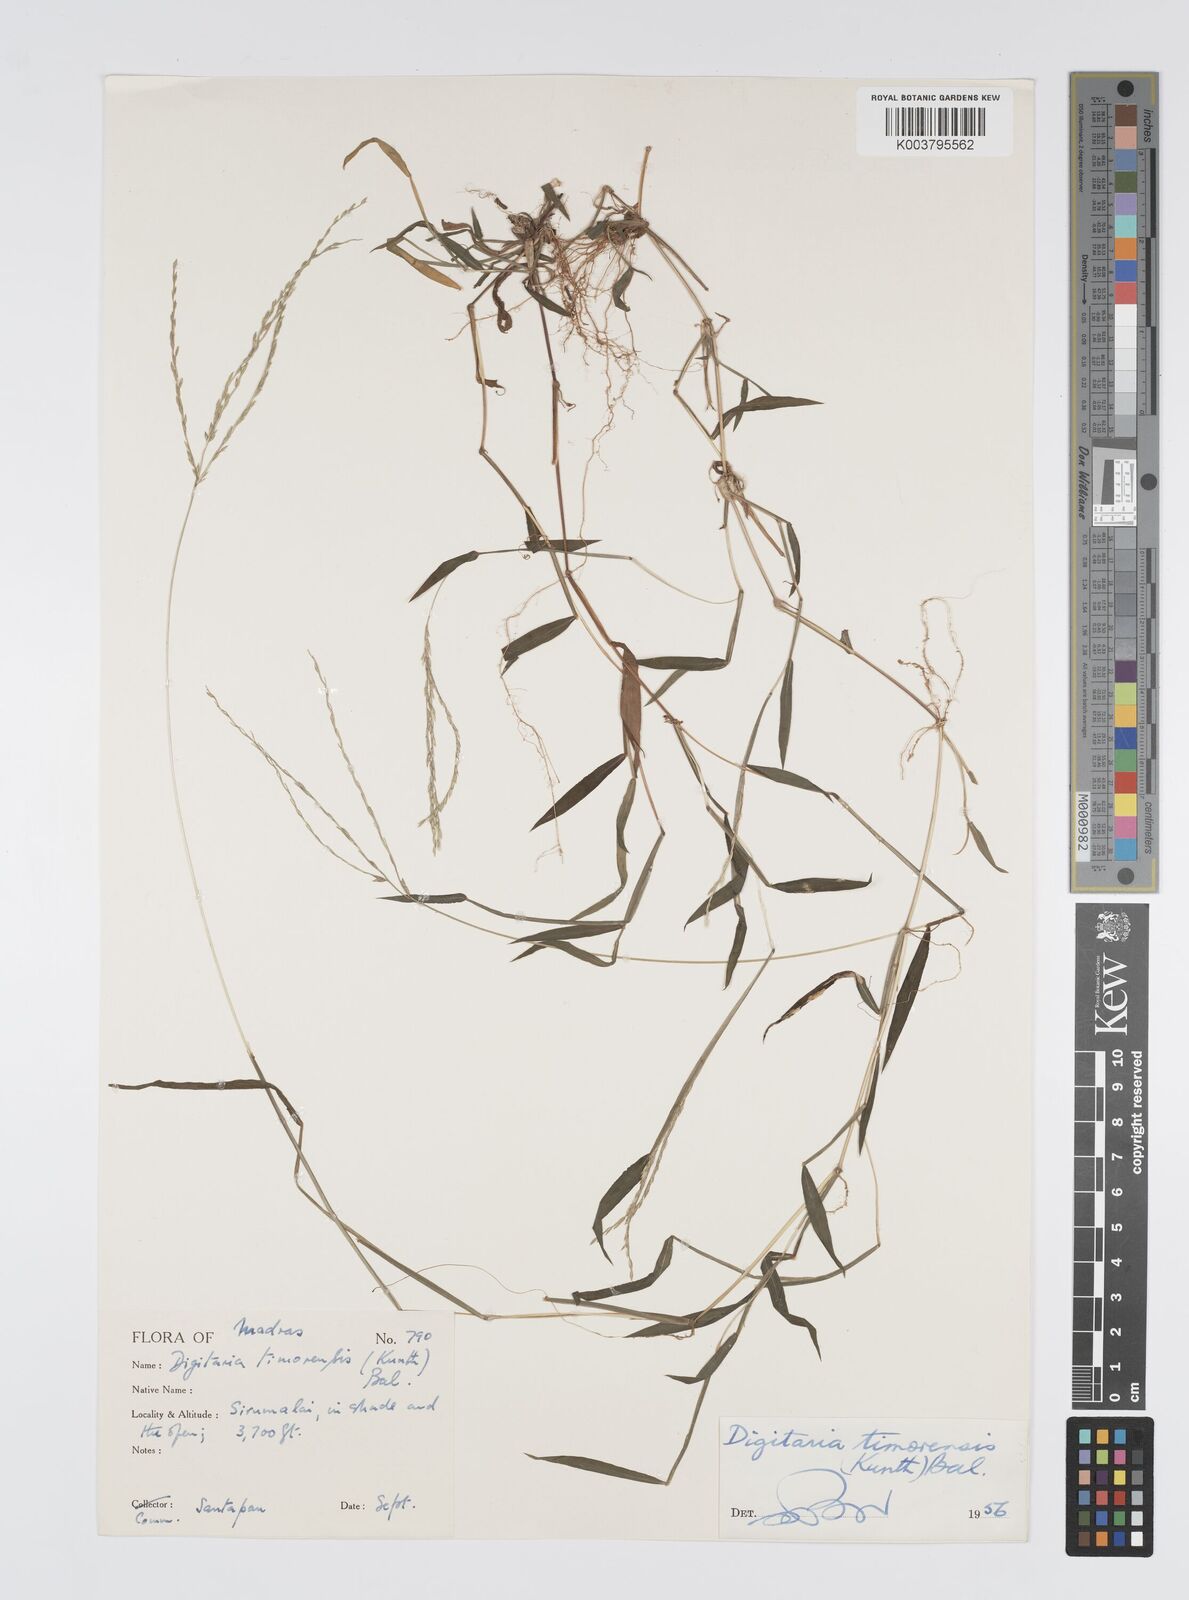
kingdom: Plantae
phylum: Tracheophyta
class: Liliopsida
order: Poales
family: Poaceae
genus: Digitaria
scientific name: Digitaria radicosa
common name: Trailing crabgrass
